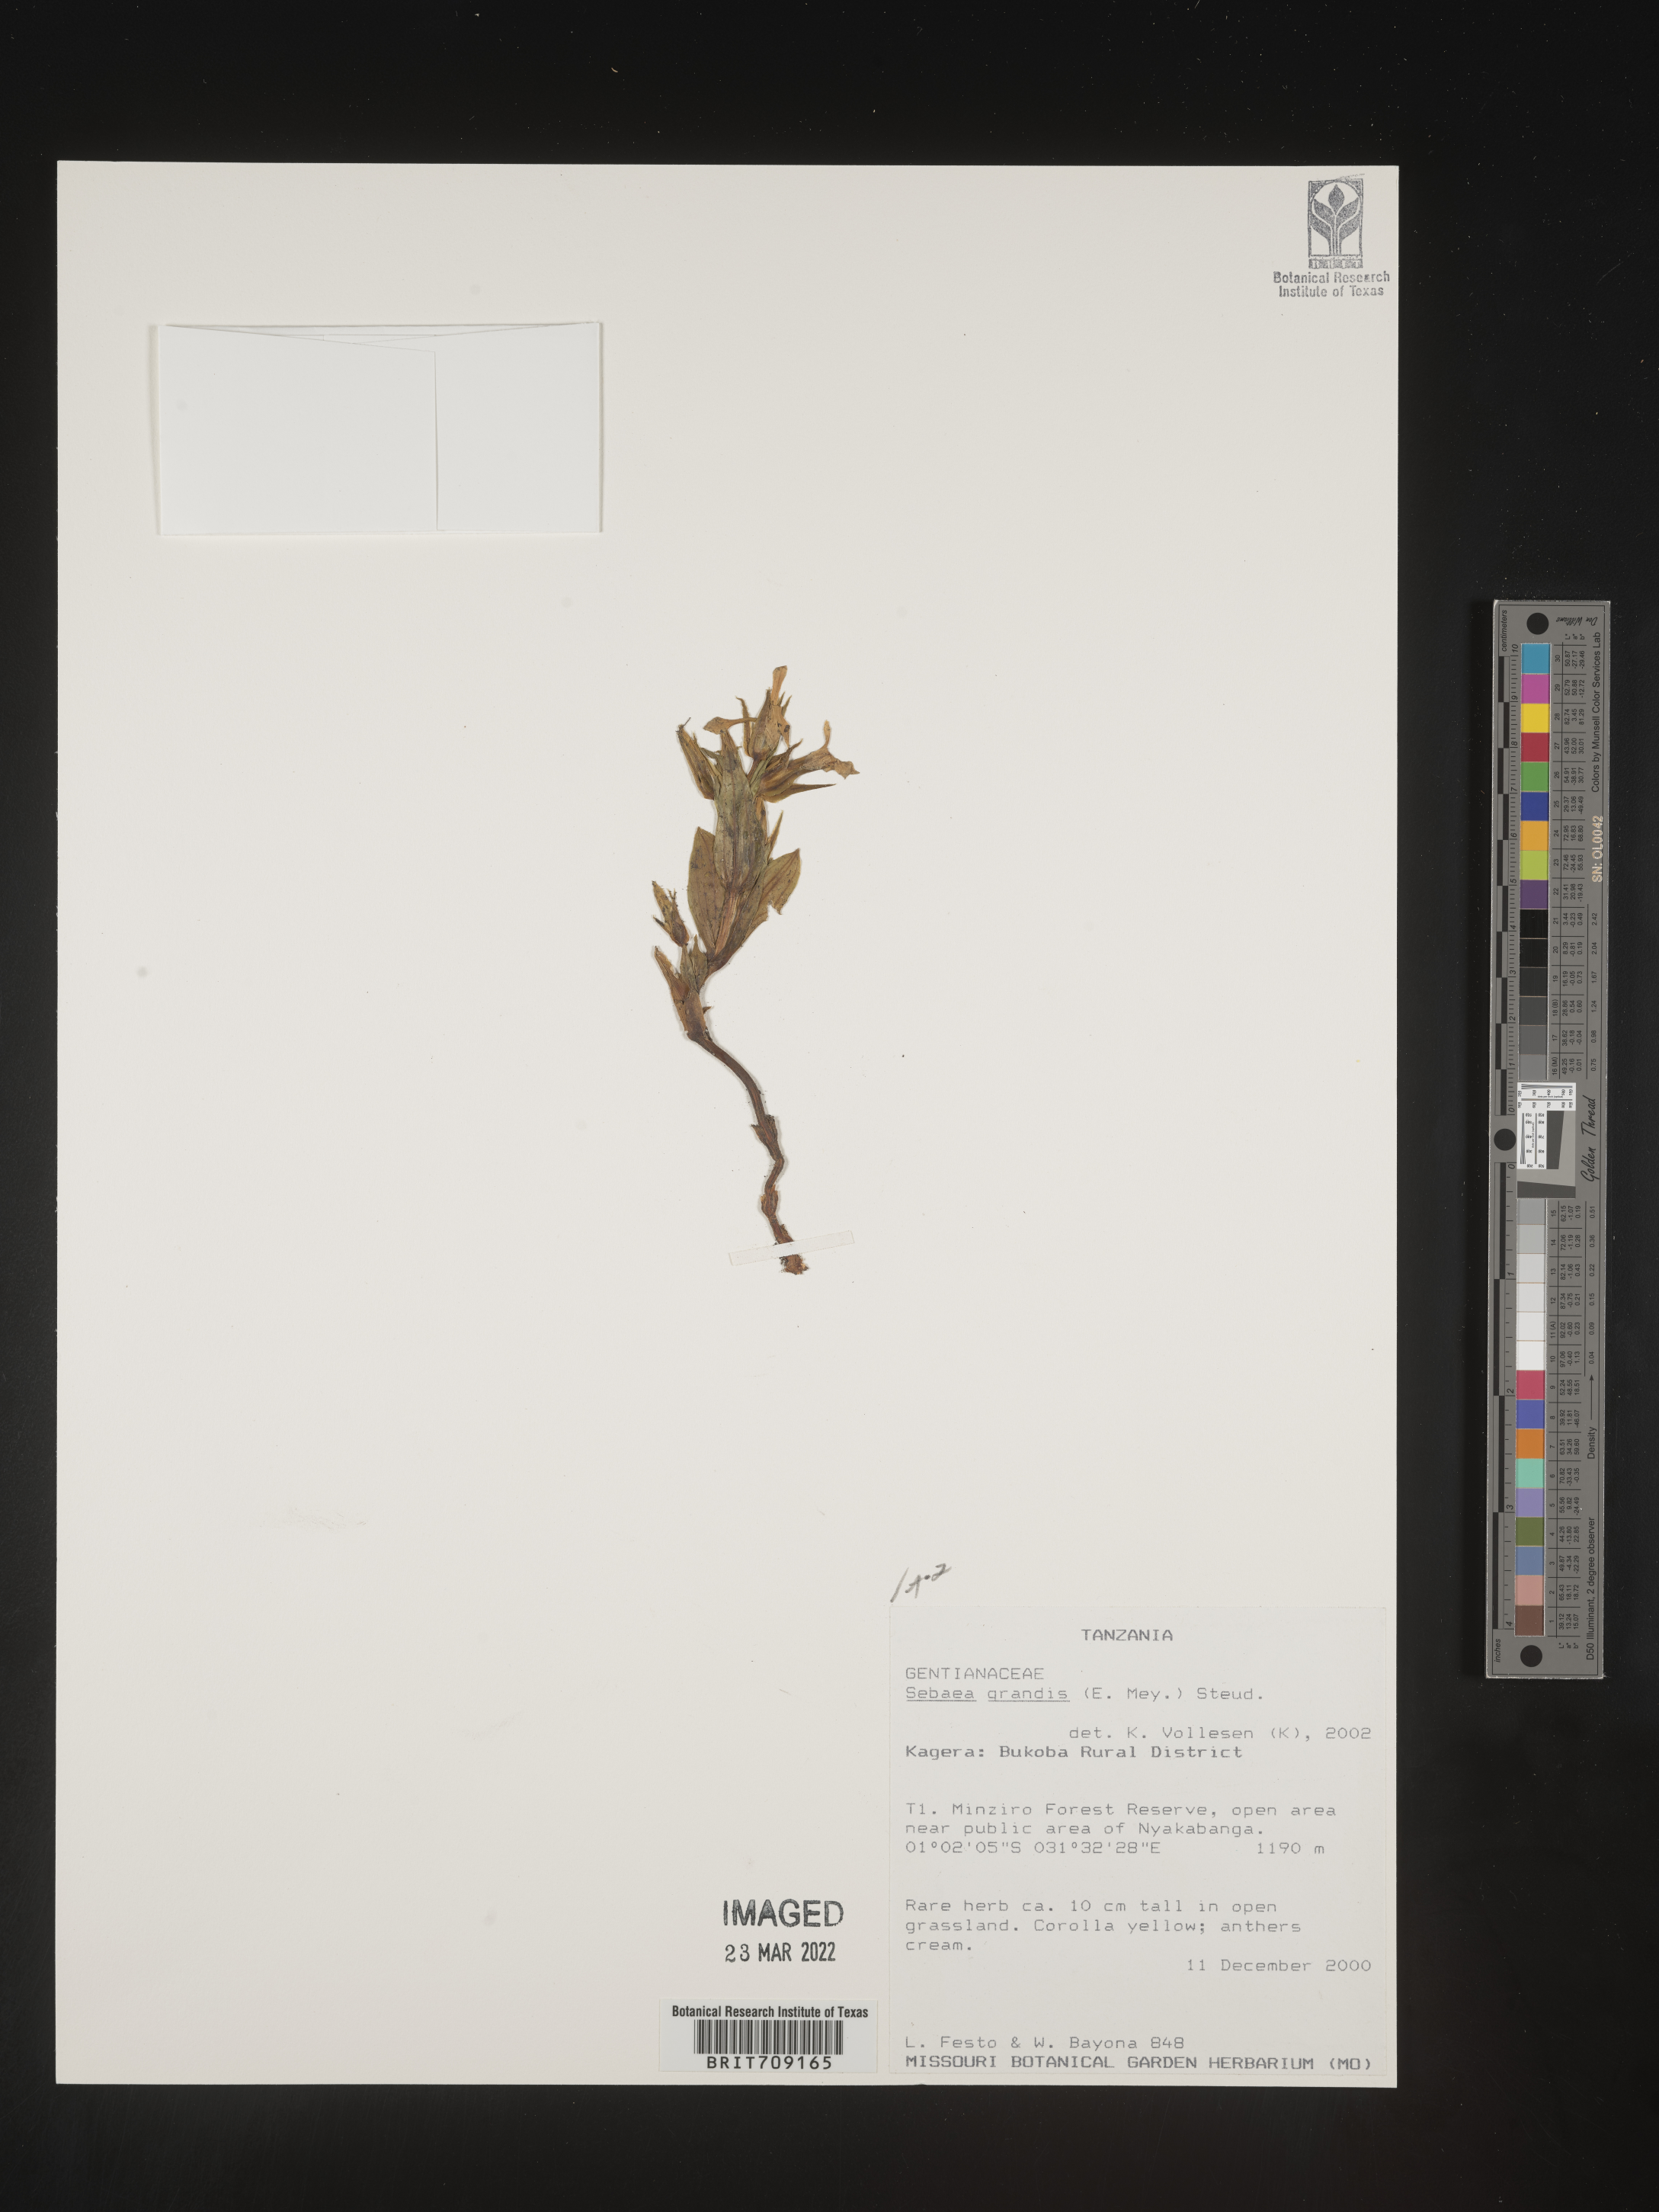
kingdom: Plantae
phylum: Tracheophyta
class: Magnoliopsida
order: Gentianales
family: Gentianaceae
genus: Sebaea
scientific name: Sebaea
